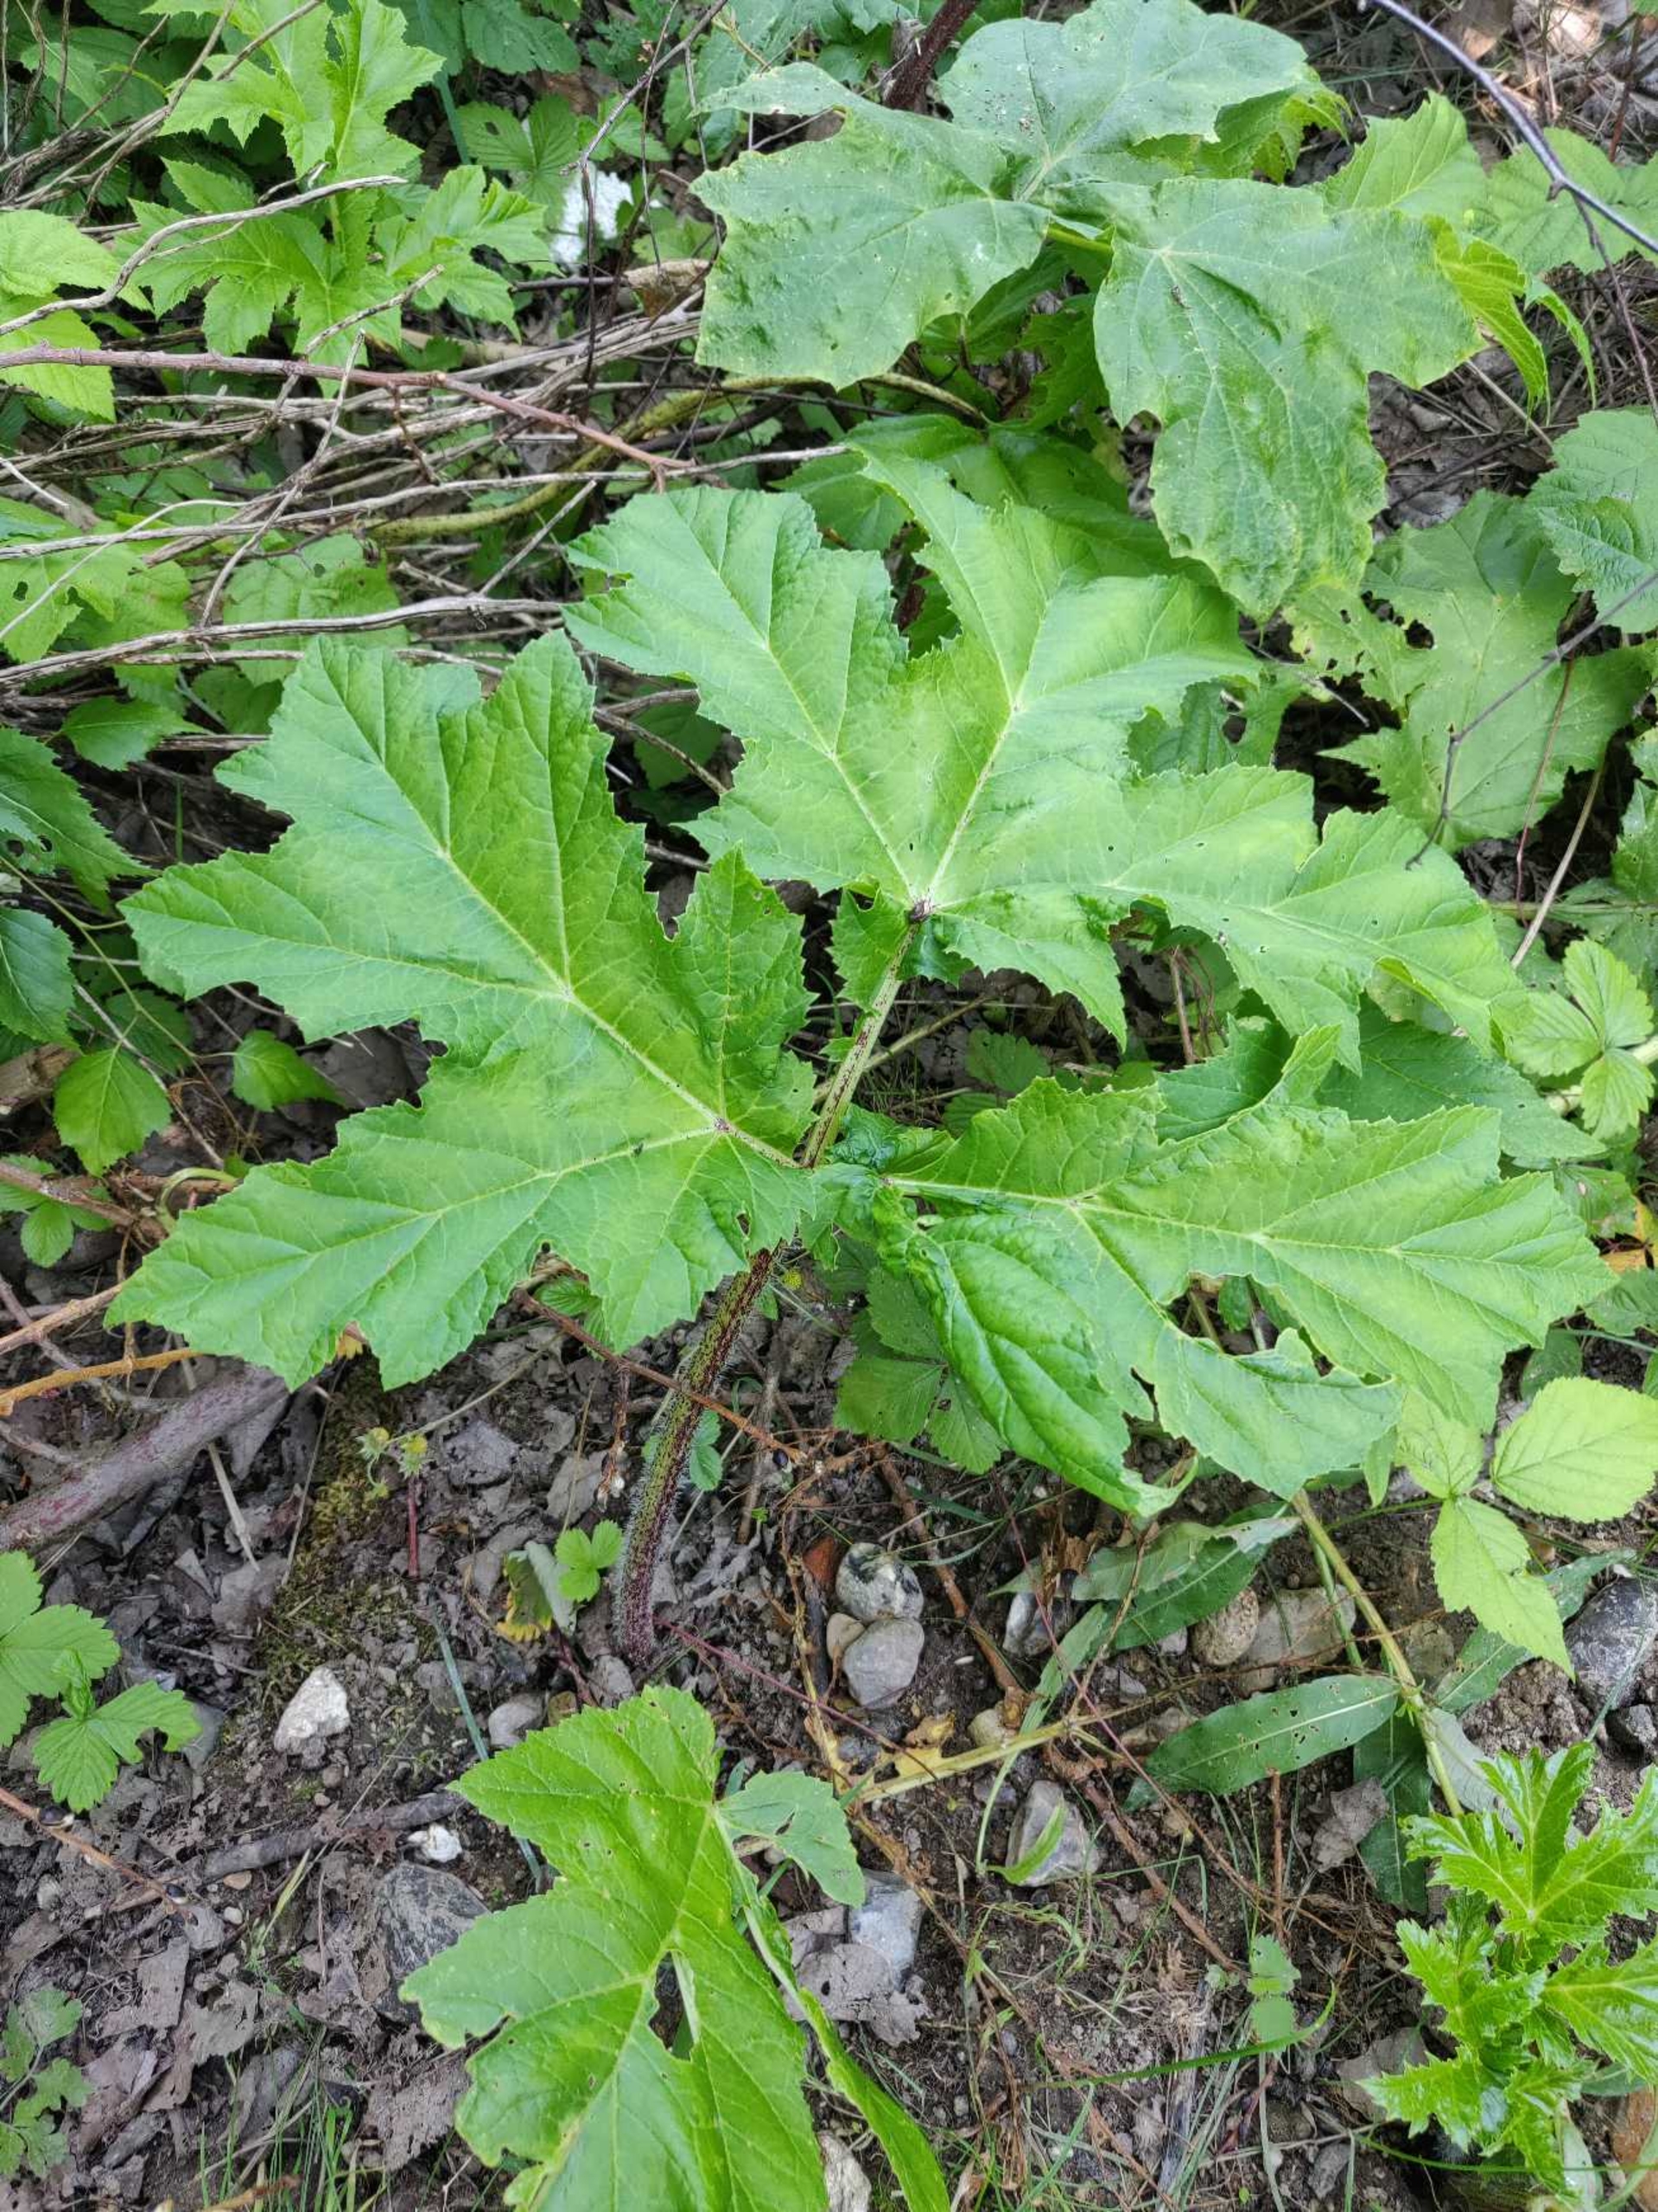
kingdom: Plantae
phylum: Tracheophyta
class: Magnoliopsida
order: Apiales
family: Apiaceae
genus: Heracleum
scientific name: Heracleum mantegazzianum
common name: Kæmpe-bjørneklo
